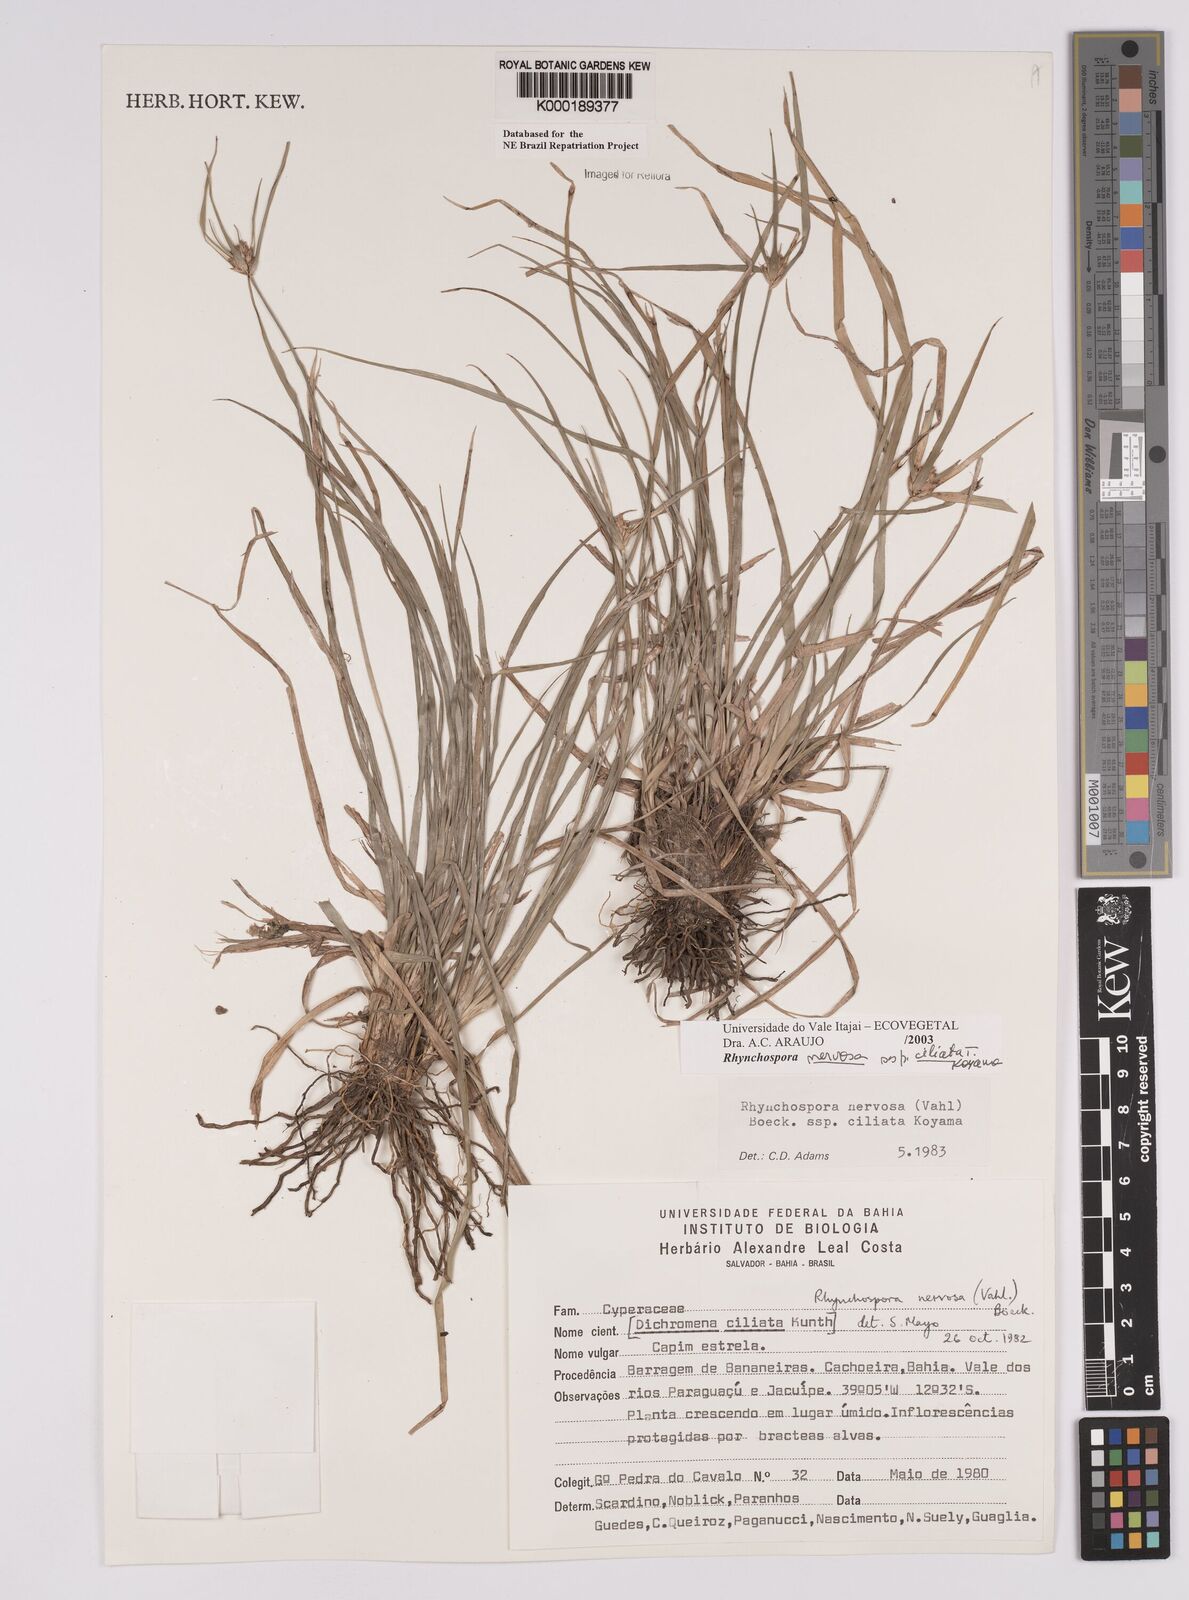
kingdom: Plantae
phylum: Tracheophyta
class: Liliopsida
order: Poales
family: Cyperaceae
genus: Rhynchospora
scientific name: Rhynchospora pura
